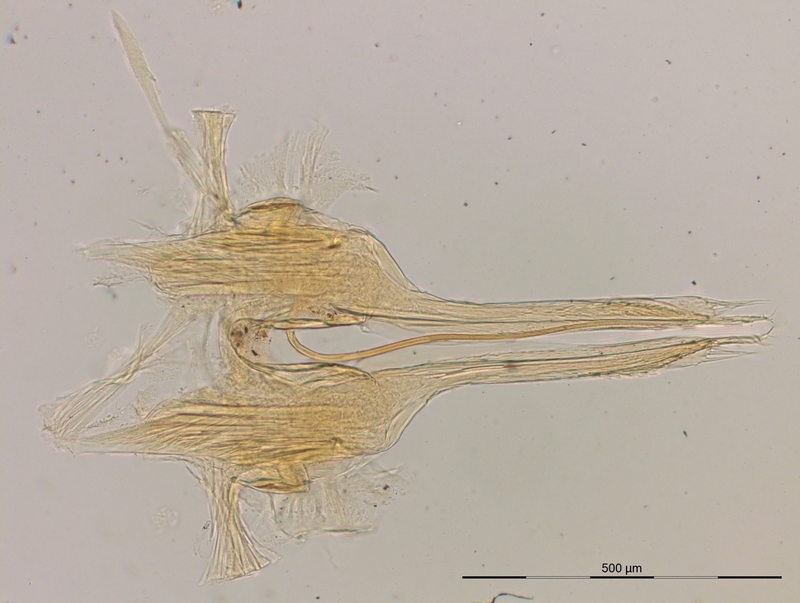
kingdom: Animalia
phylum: Arthropoda
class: Diplopoda
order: Julida
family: Nemasomatidae
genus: Antrokoreana
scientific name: Antrokoreana gracilipes
